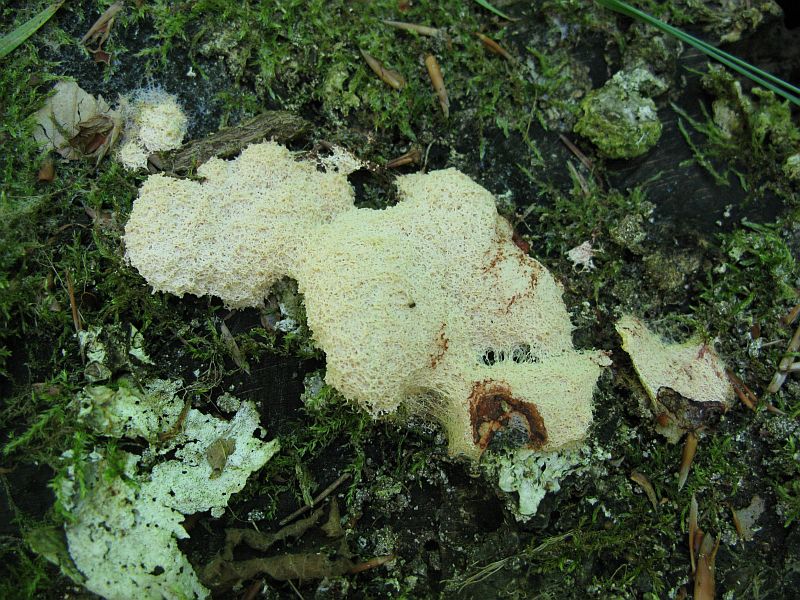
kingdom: Protozoa
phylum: Mycetozoa
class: Myxomycetes
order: Physarales
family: Physaraceae
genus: Fuligo
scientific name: Fuligo septica
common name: gul troldsmør
